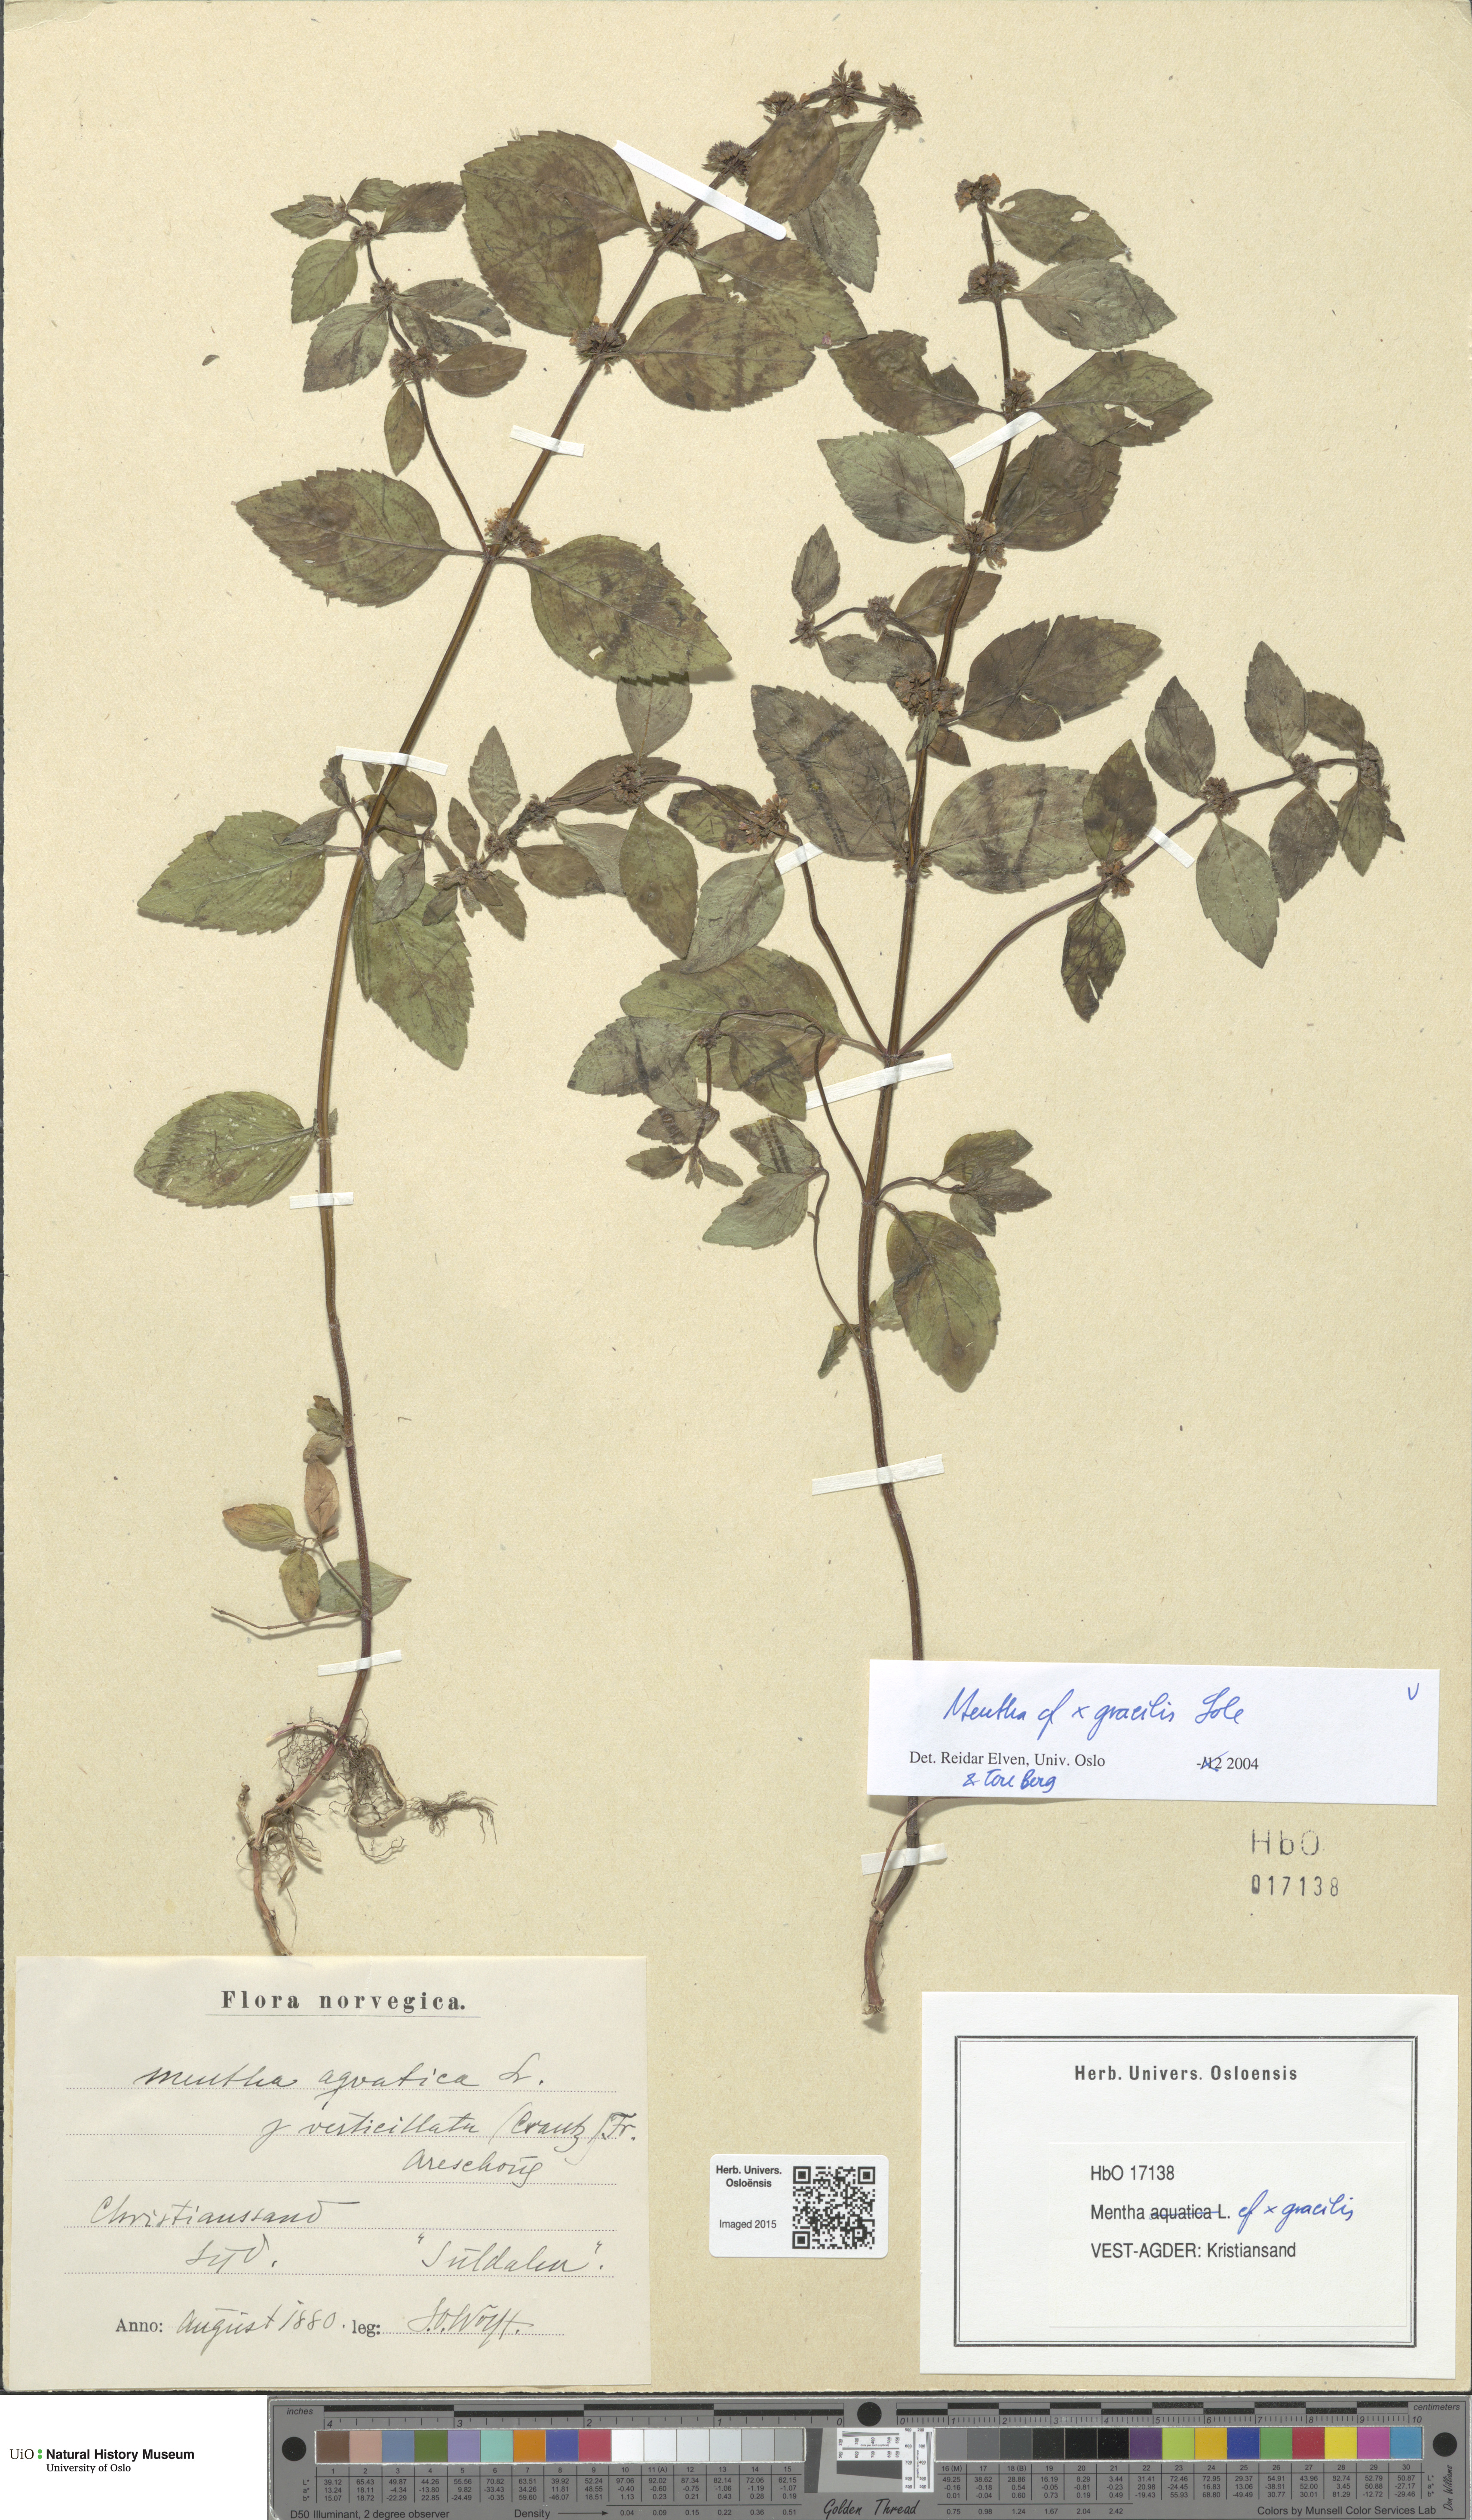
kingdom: Plantae
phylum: Tracheophyta
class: Magnoliopsida
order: Lamiales
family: Lamiaceae
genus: Mentha
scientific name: Mentha arvensis
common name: Corn mint
